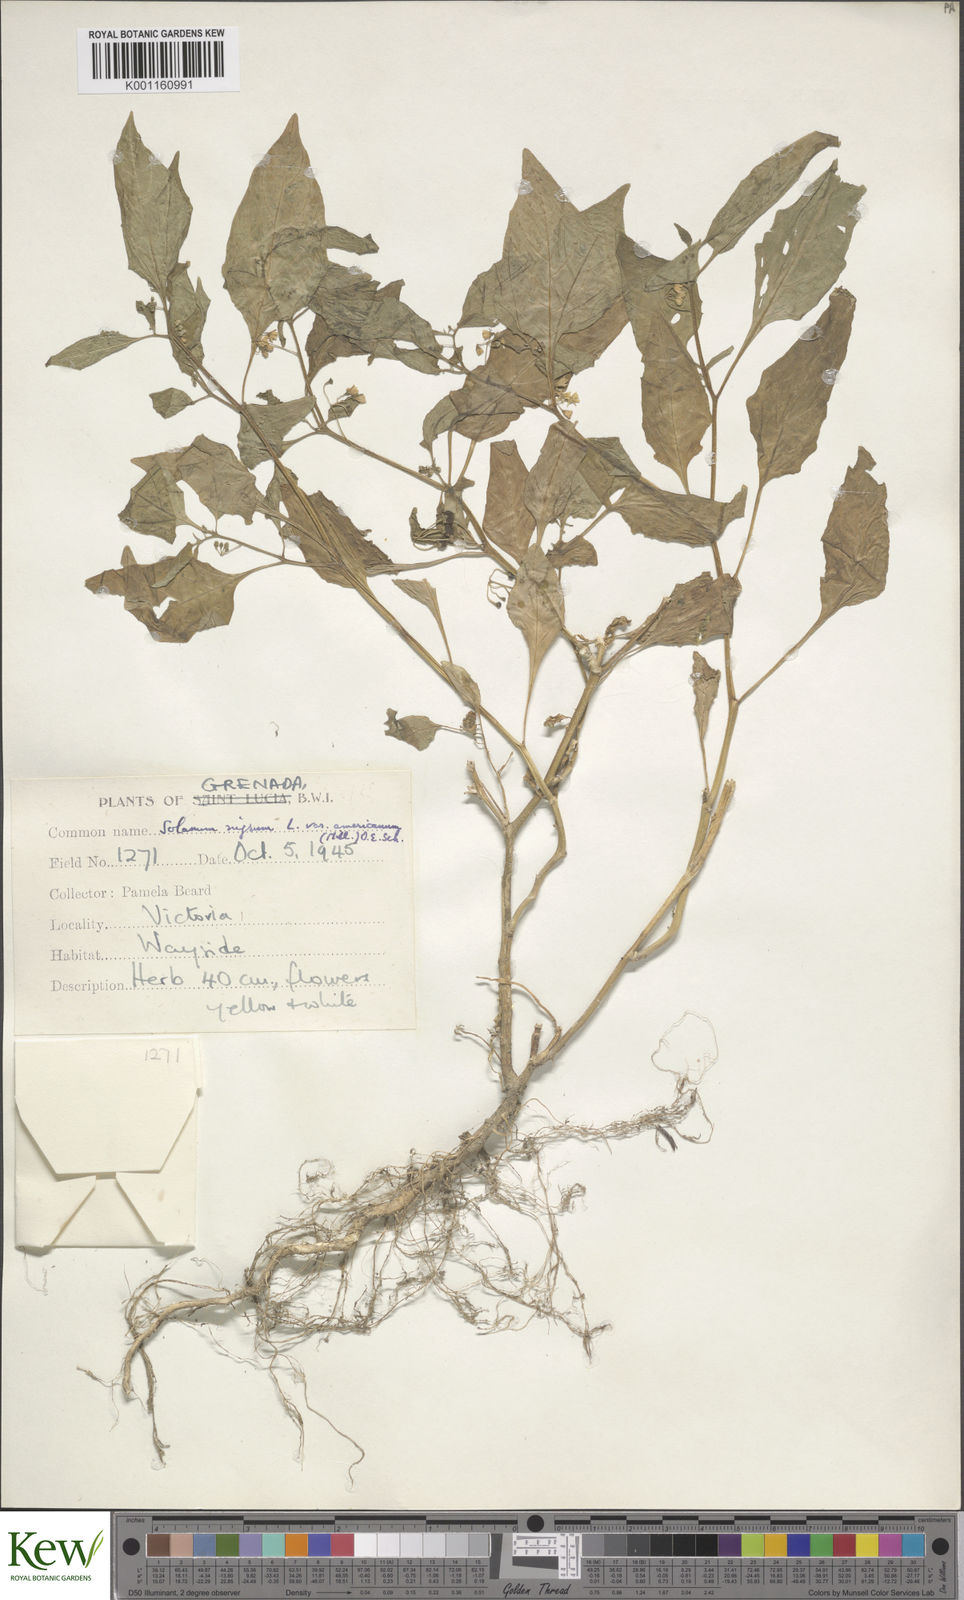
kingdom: Plantae
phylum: Tracheophyta
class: Magnoliopsida
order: Solanales
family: Solanaceae
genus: Solanum
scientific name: Solanum americanum
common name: American black nightshade
